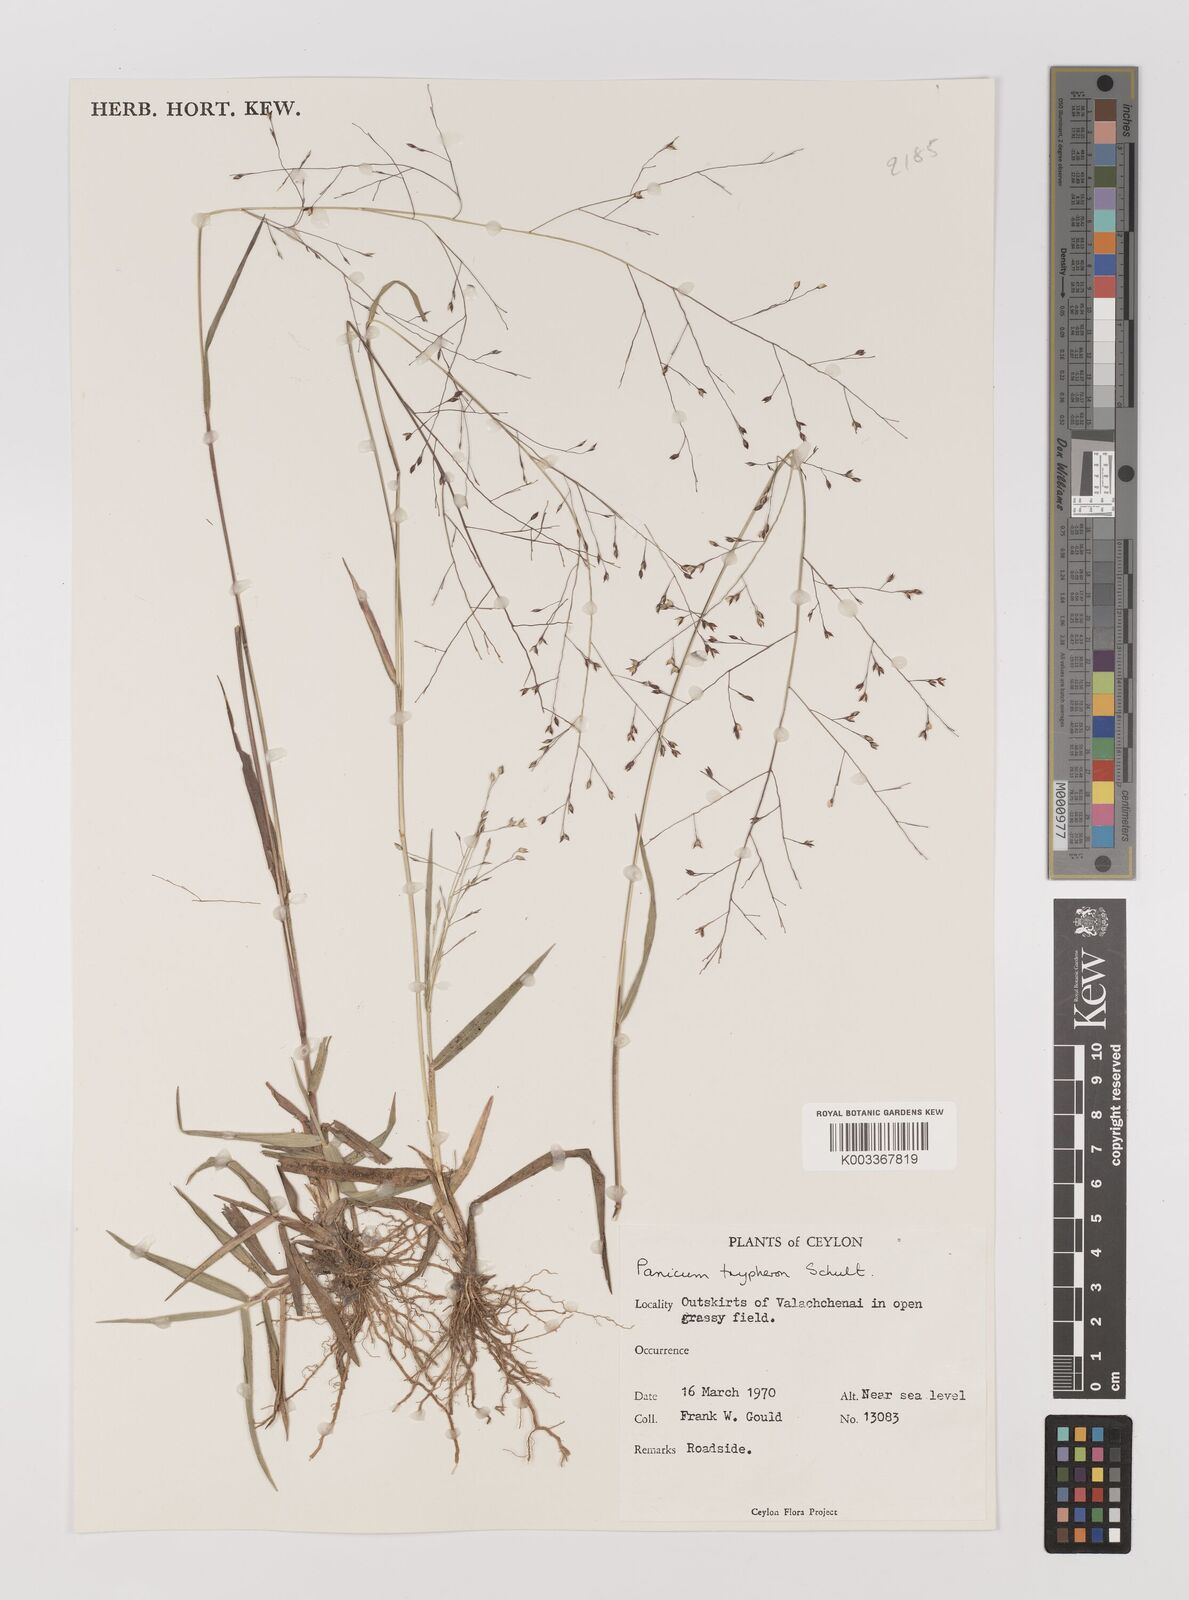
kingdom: Plantae
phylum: Tracheophyta
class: Liliopsida
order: Poales
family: Poaceae
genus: Panicum
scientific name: Panicum curviflorum
